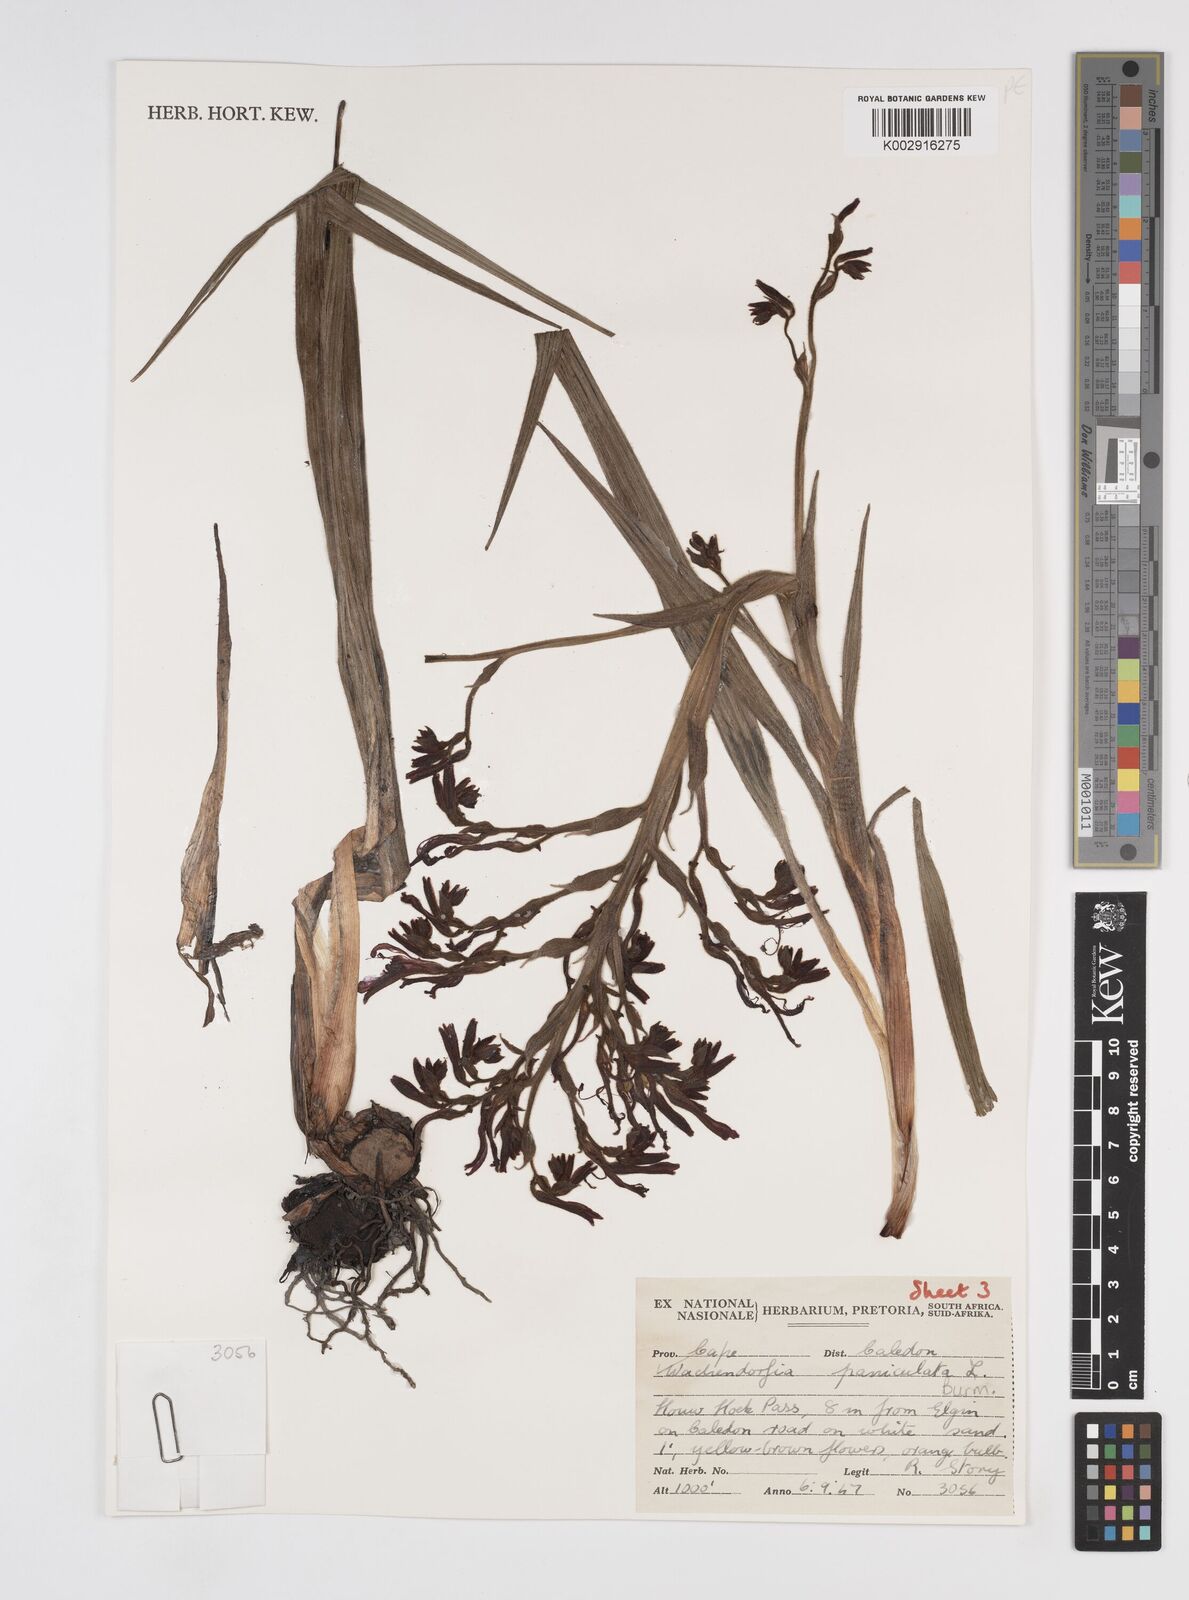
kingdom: Plantae
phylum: Tracheophyta
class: Liliopsida
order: Commelinales
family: Haemodoraceae
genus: Wachendorfia
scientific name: Wachendorfia paniculata
